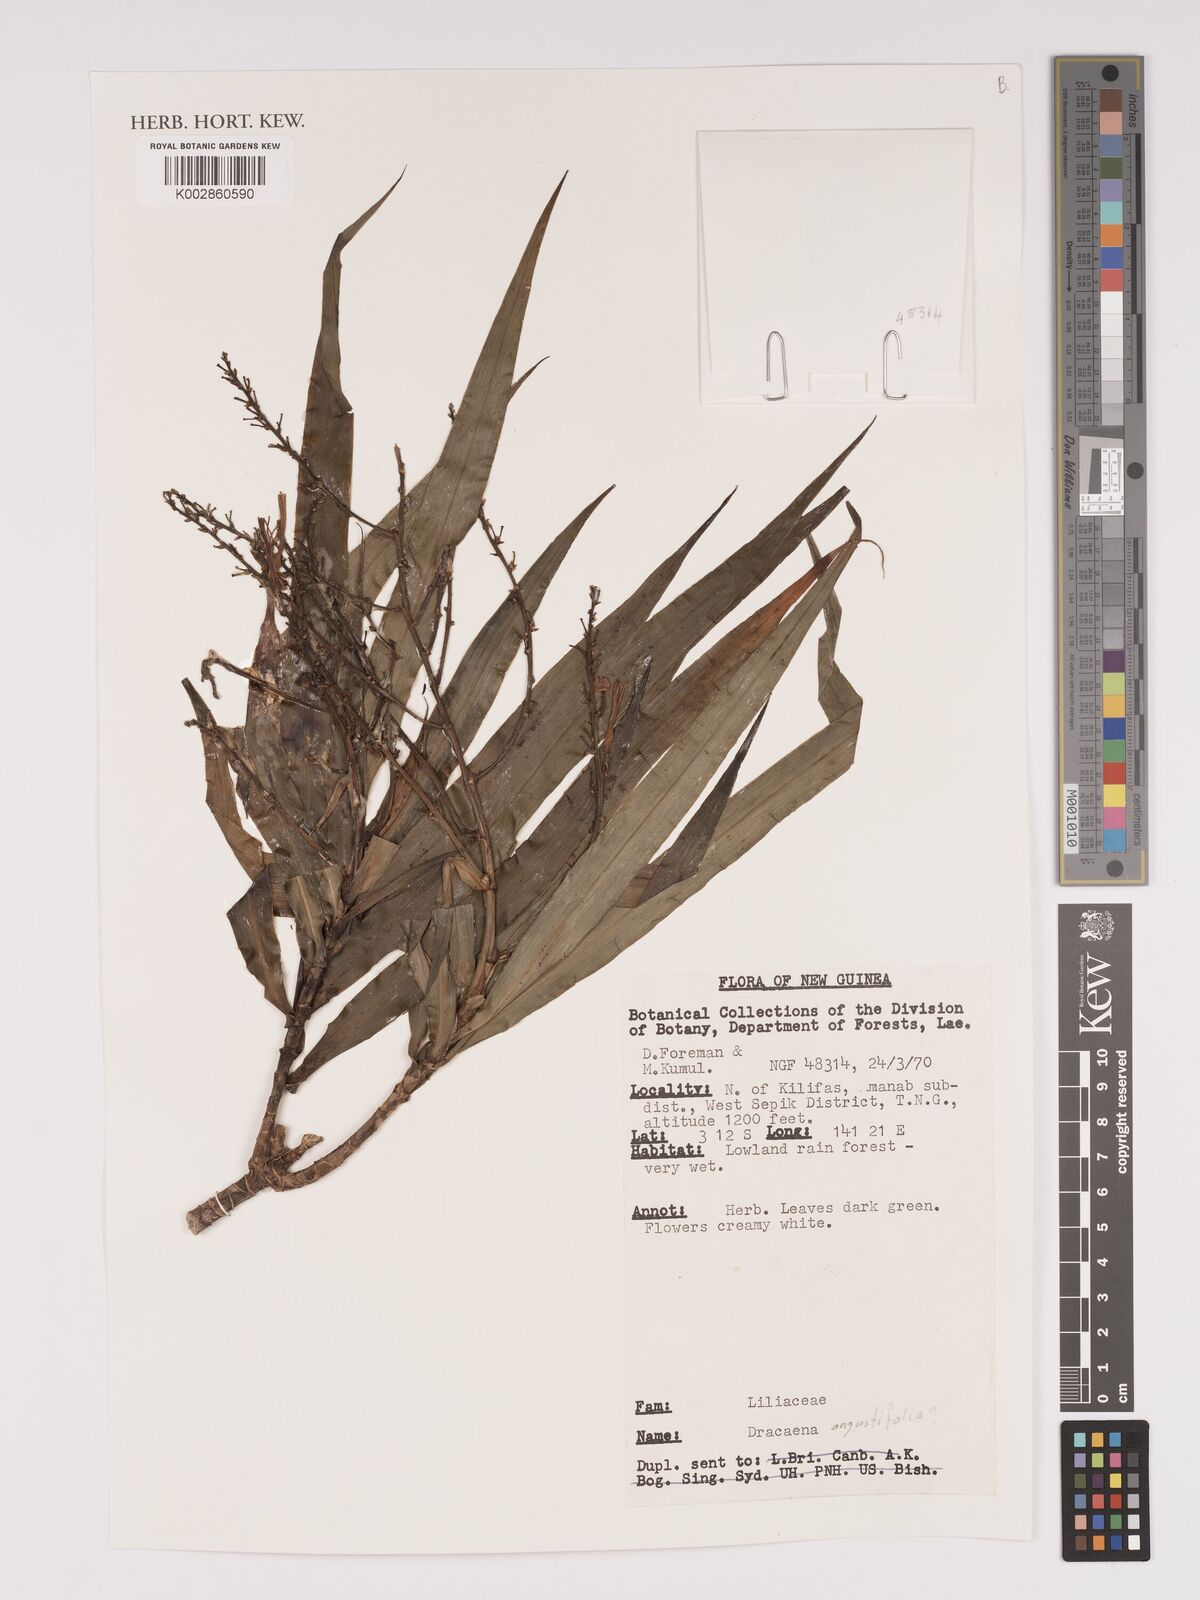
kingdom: Plantae
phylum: Tracheophyta
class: Liliopsida
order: Asparagales
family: Asparagaceae
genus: Dracaena
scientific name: Dracaena angustifolia
